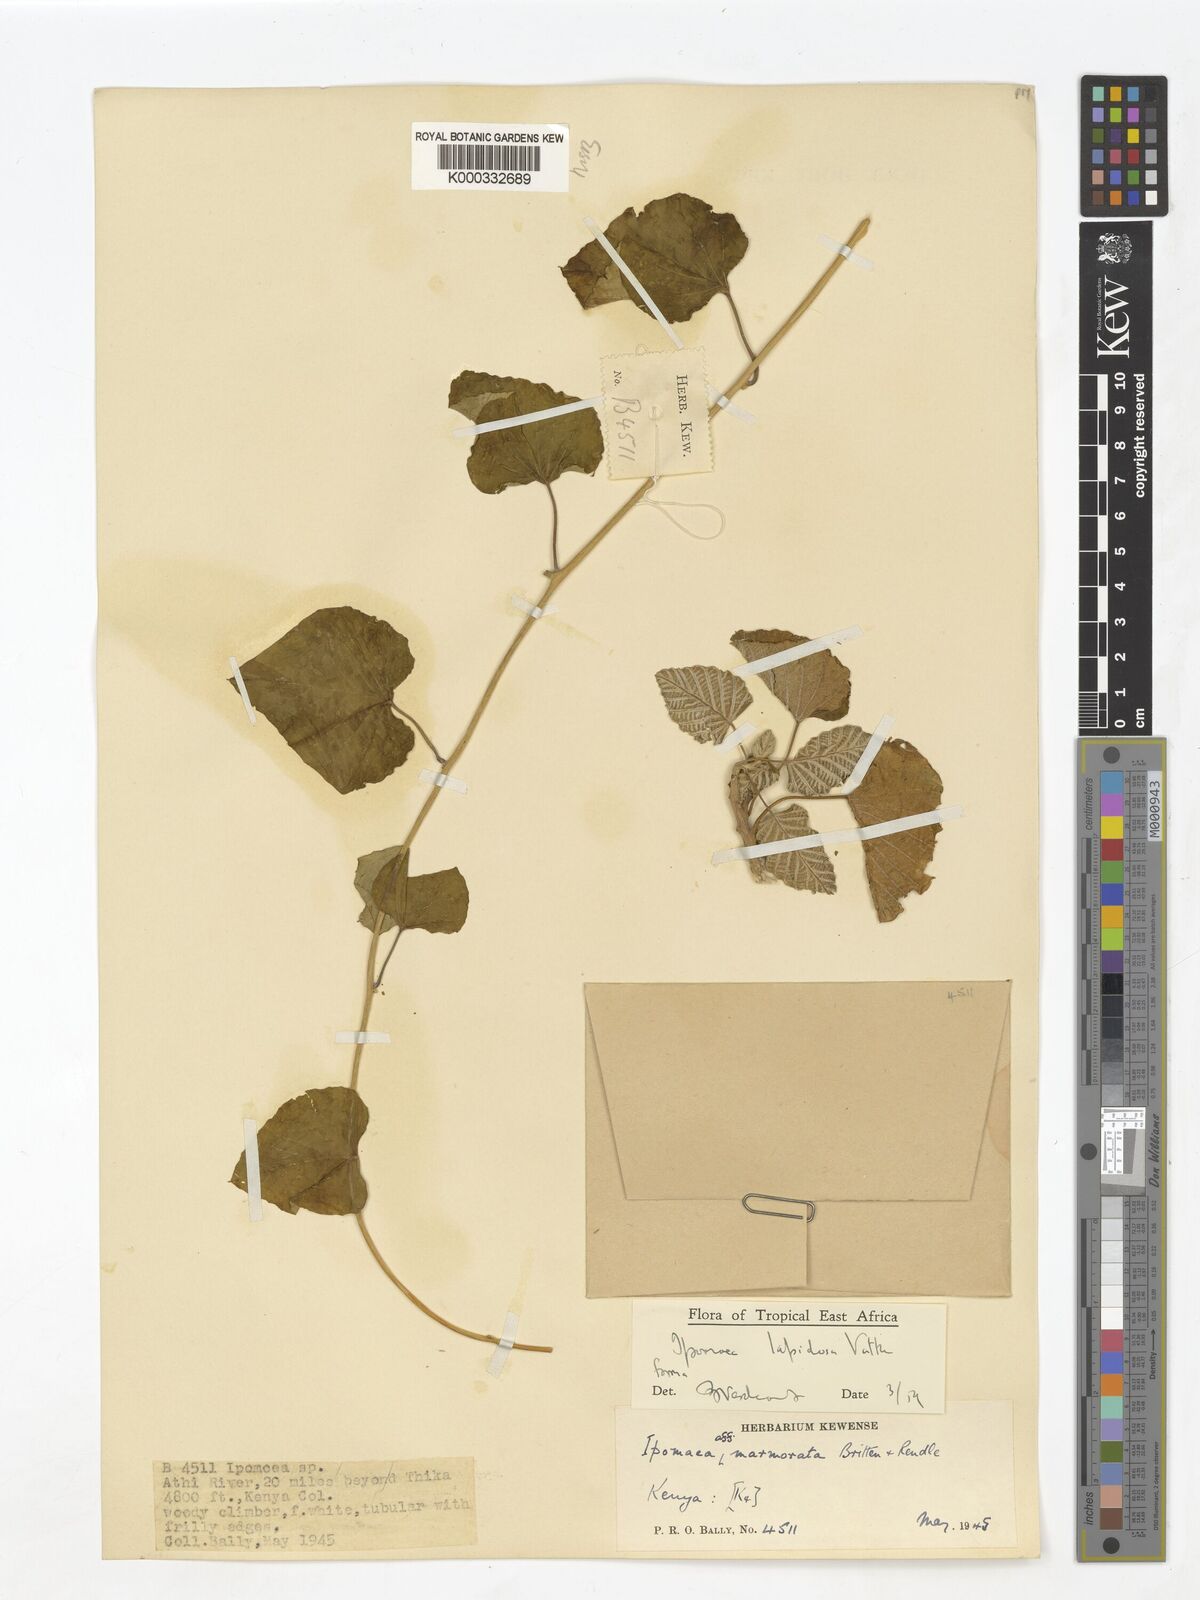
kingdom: Plantae
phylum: Tracheophyta
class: Magnoliopsida
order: Solanales
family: Convolvulaceae
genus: Ipomoea
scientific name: Ipomoea lapidosa
